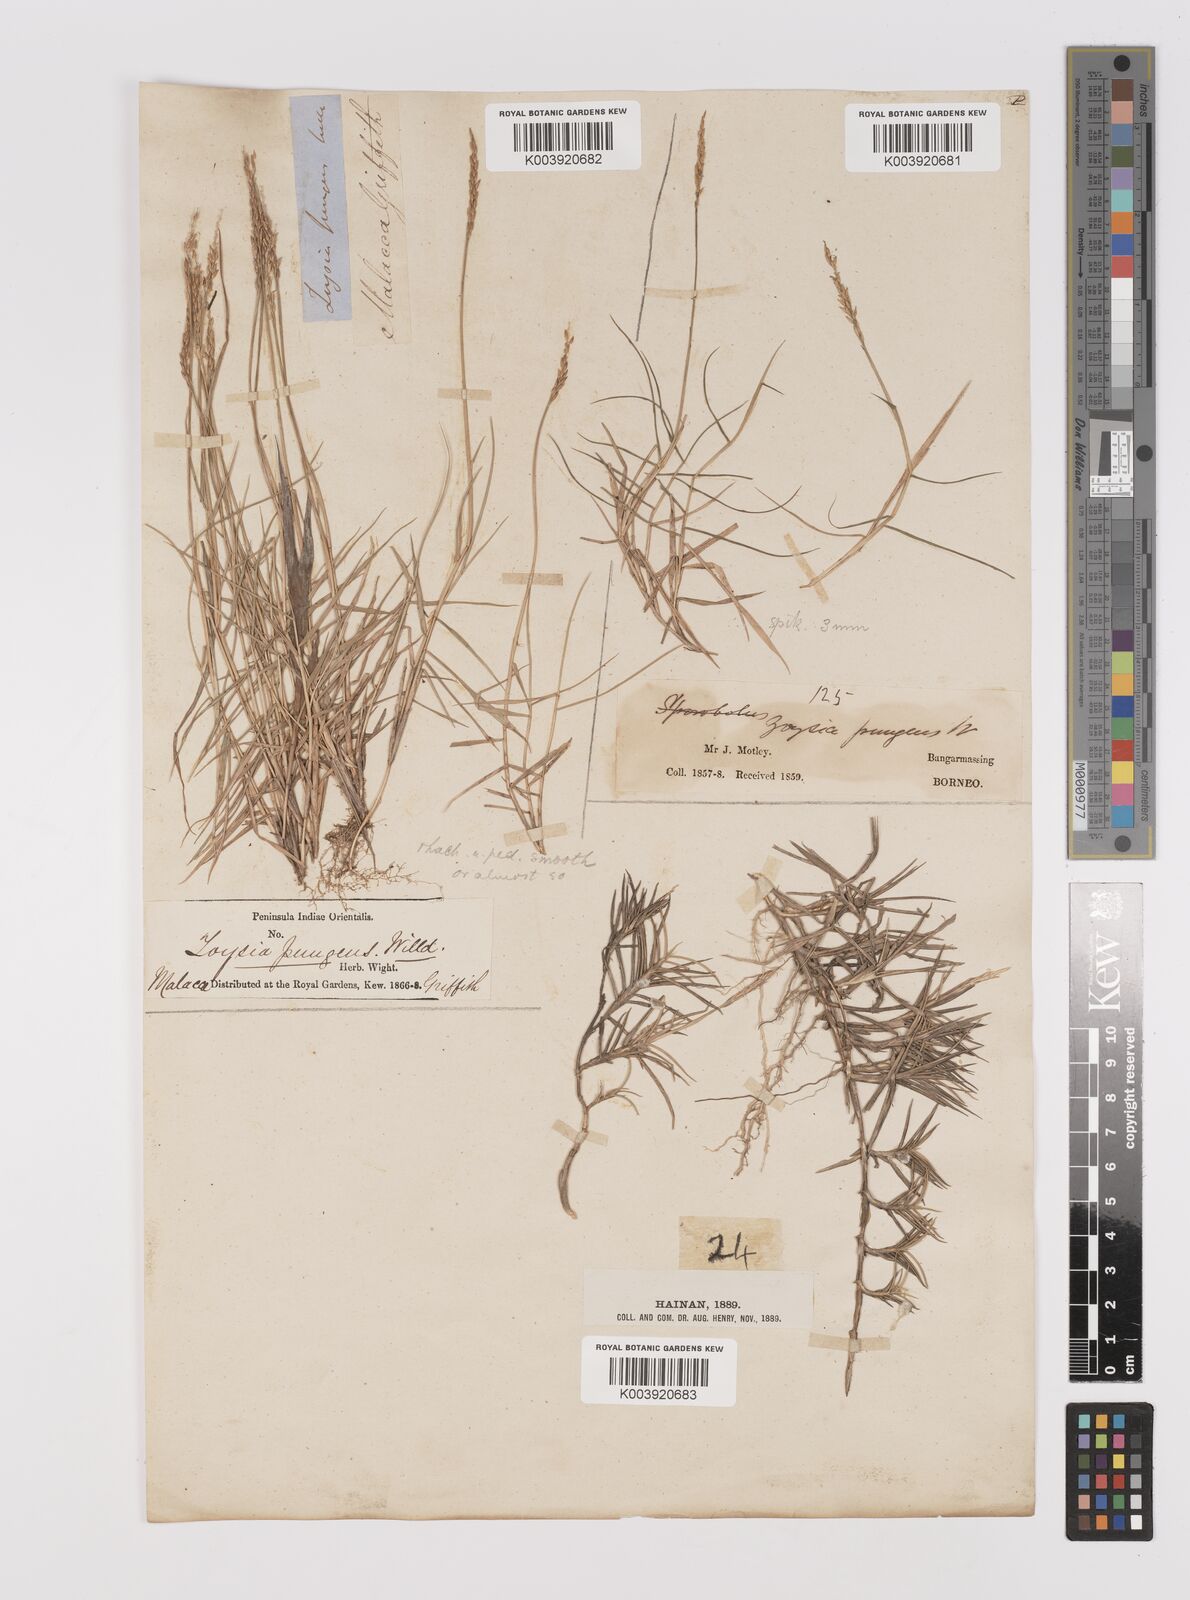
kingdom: Plantae
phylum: Tracheophyta
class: Liliopsida
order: Poales
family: Poaceae
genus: Zoysia
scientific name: Zoysia matrella
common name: Manila grass
